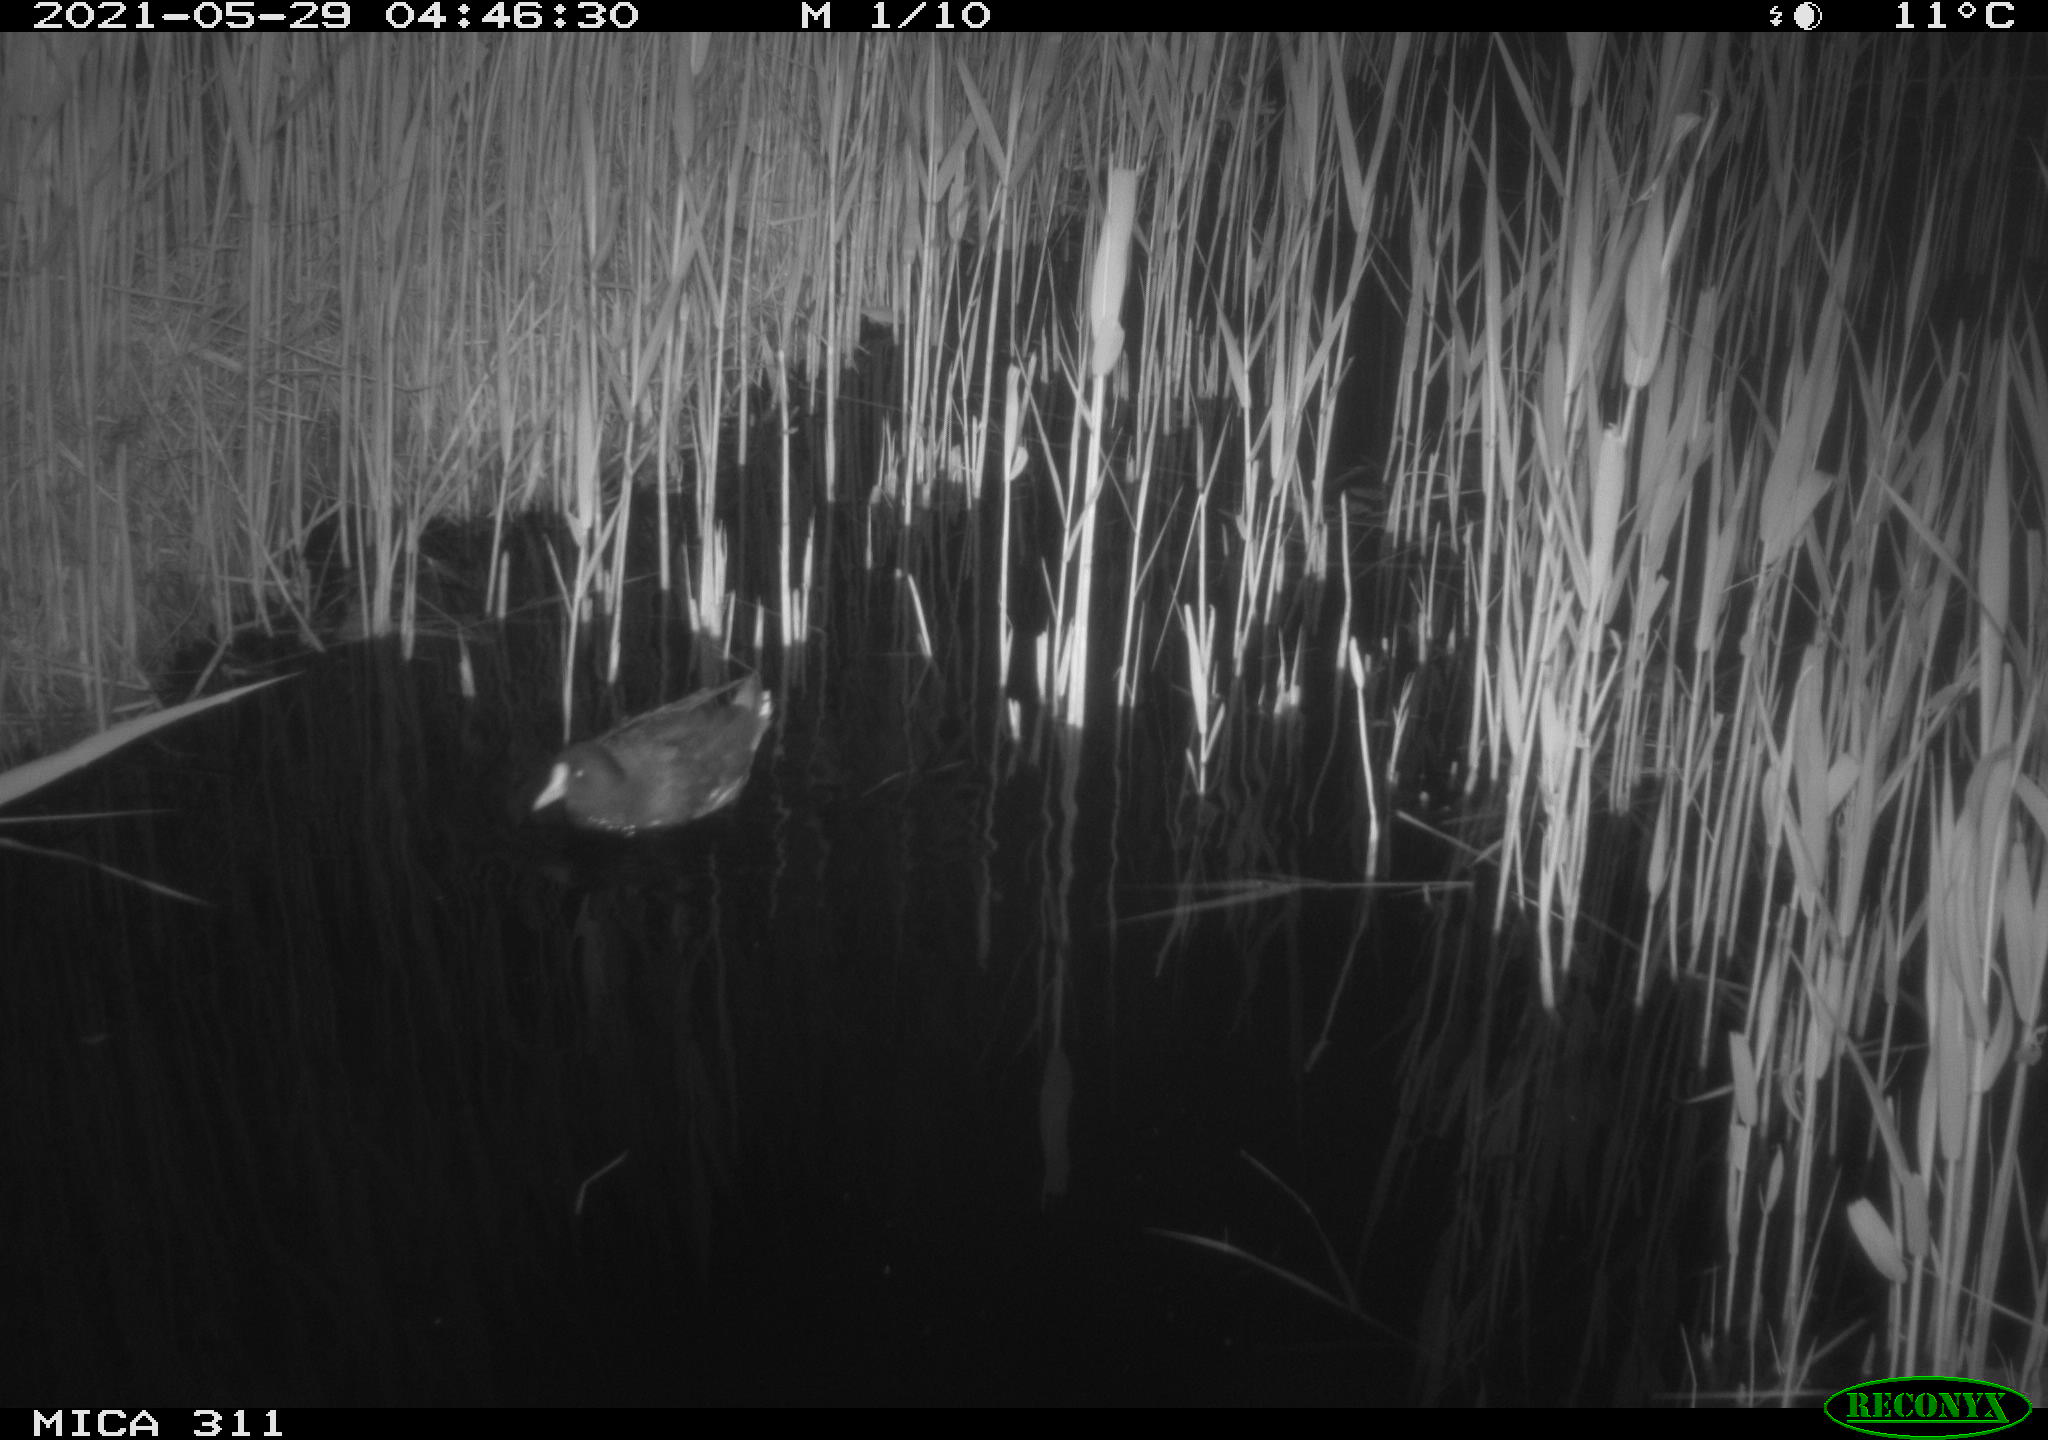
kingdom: Animalia
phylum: Chordata
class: Aves
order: Gruiformes
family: Rallidae
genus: Gallinula
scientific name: Gallinula chloropus
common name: Common moorhen
